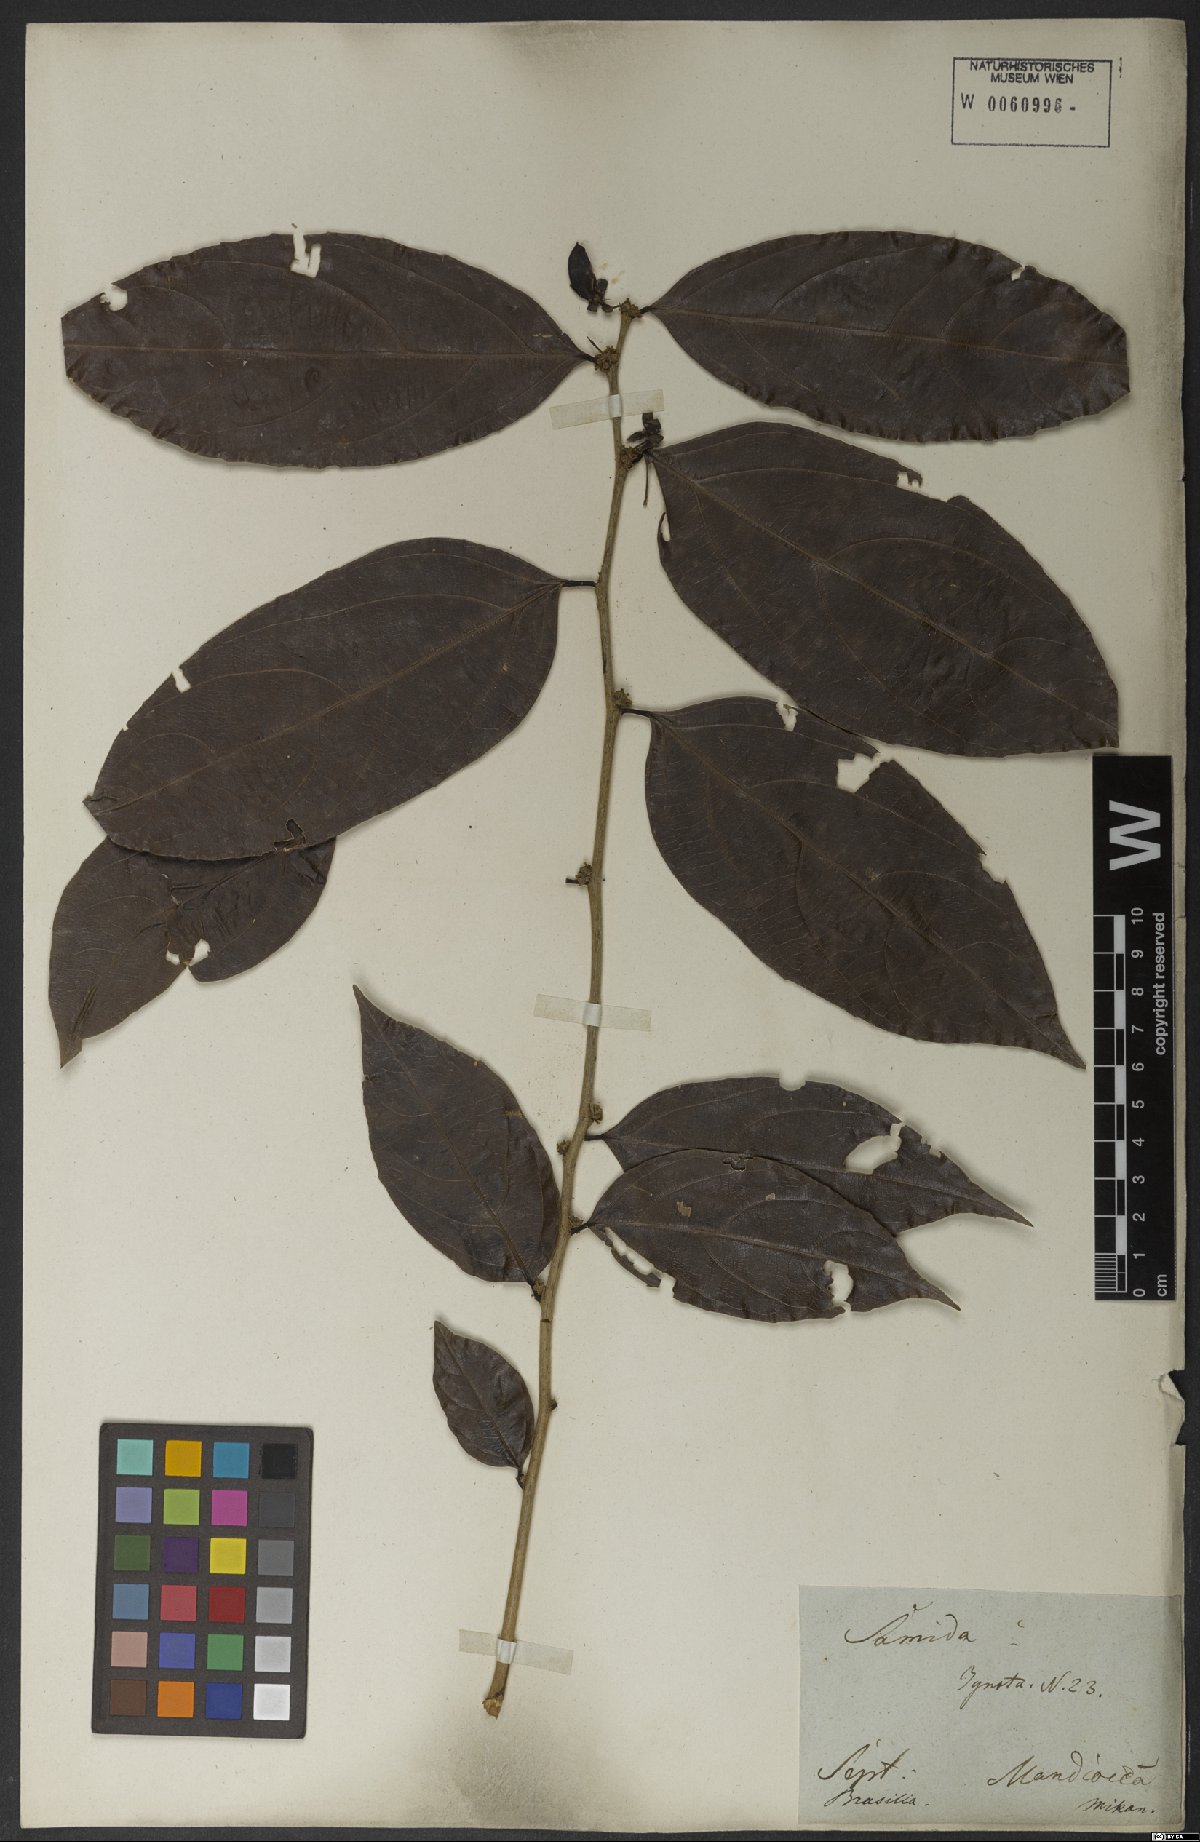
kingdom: Plantae
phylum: Tracheophyta
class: Magnoliopsida
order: Malpighiales
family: Salicaceae
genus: Piparea
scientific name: Piparea dentata
